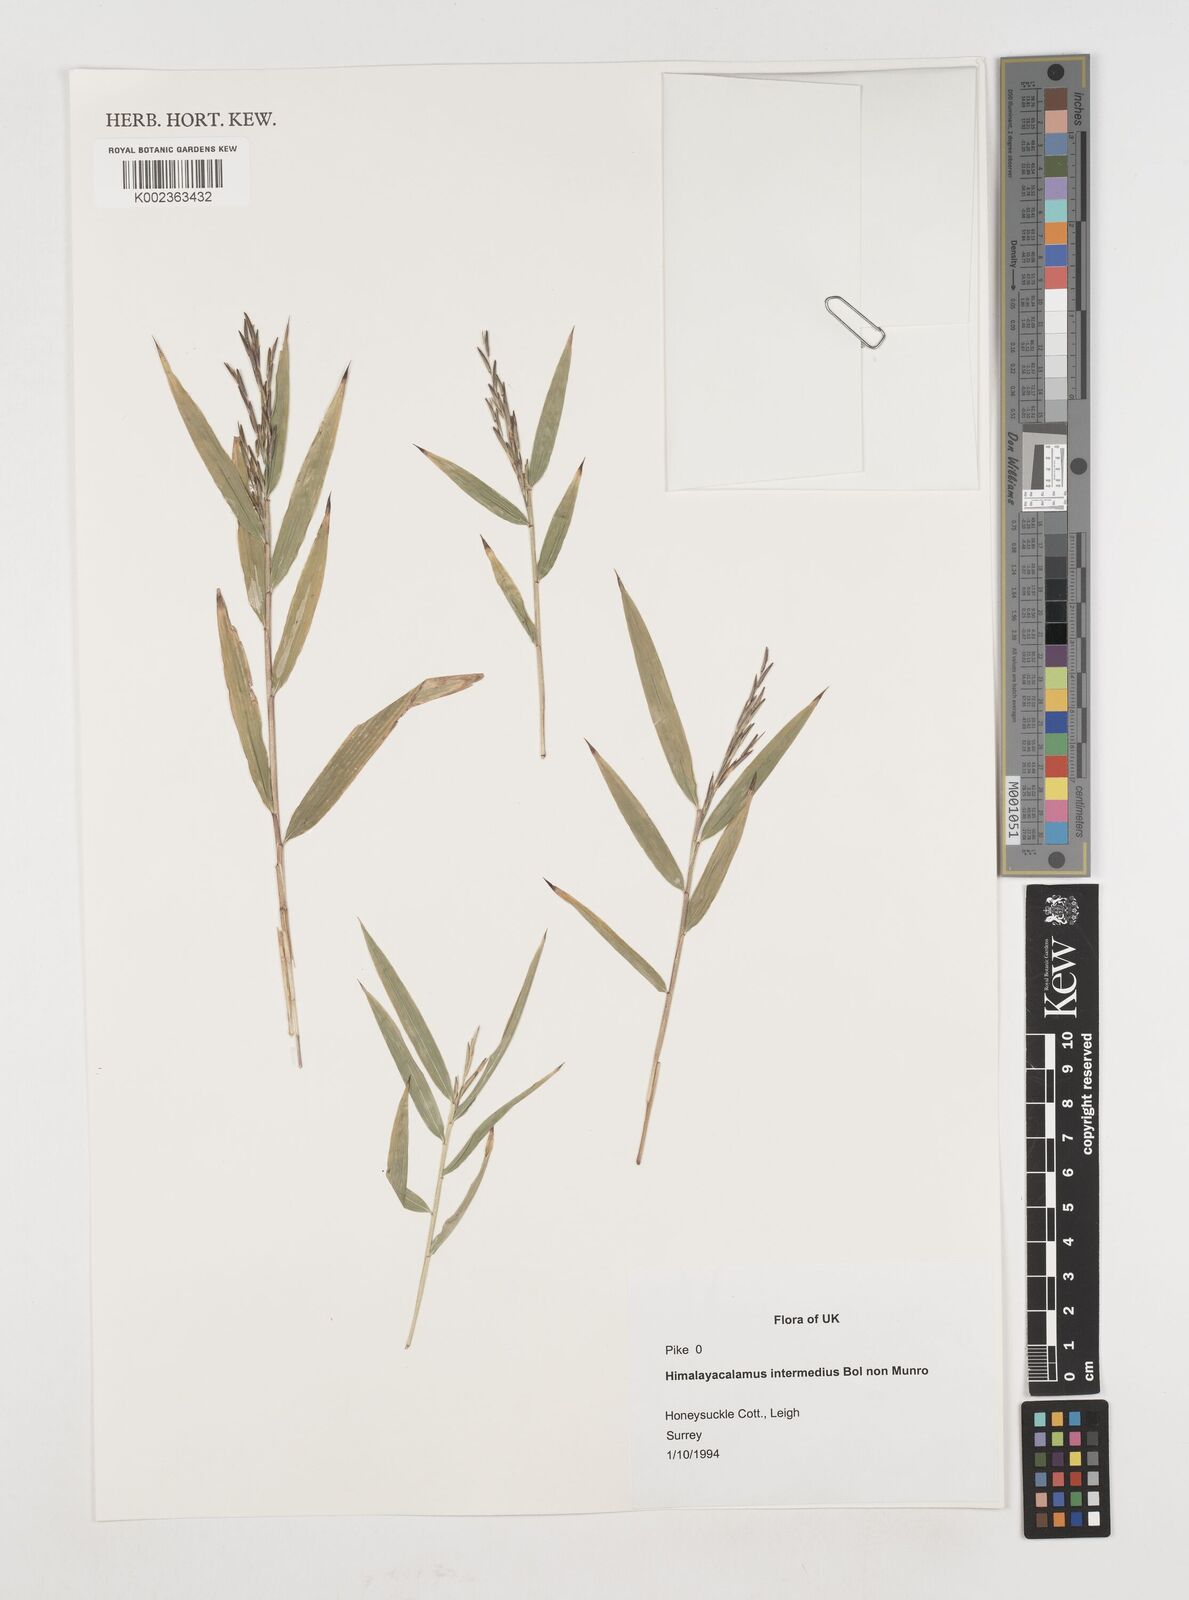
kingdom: Plantae
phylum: Tracheophyta
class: Liliopsida
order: Poales
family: Poaceae
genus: Himalayacalamus
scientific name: Himalayacalamus
